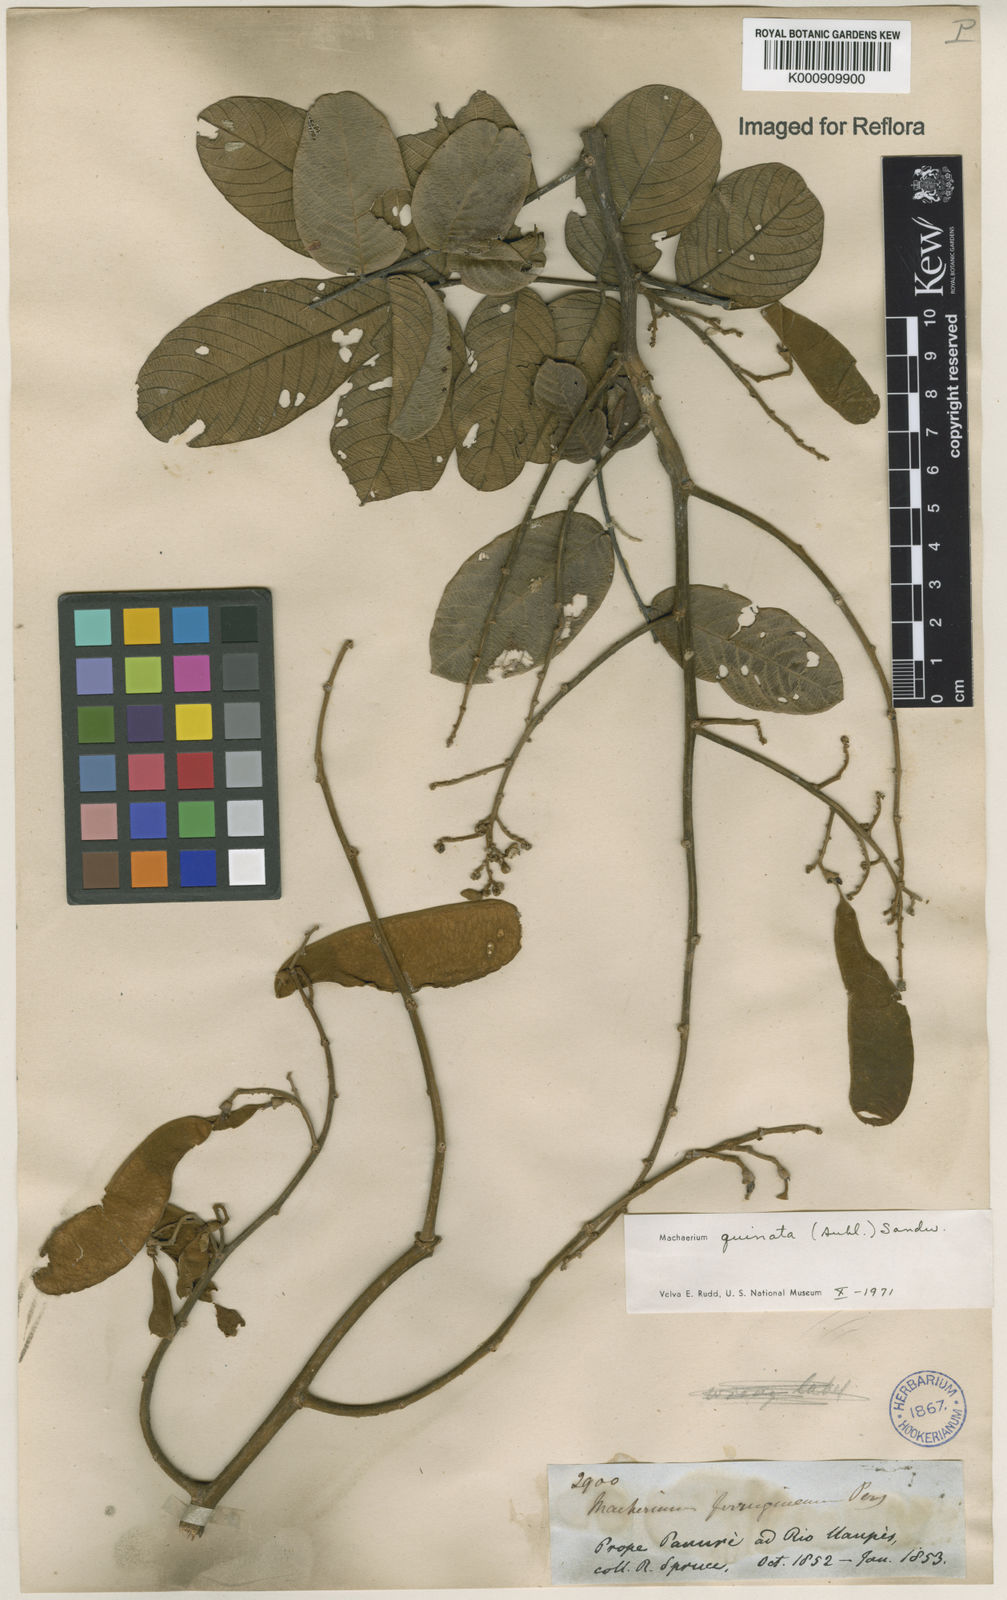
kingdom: Plantae
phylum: Tracheophyta
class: Magnoliopsida
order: Fabales
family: Fabaceae
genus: Machaerium
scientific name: Machaerium quinata
